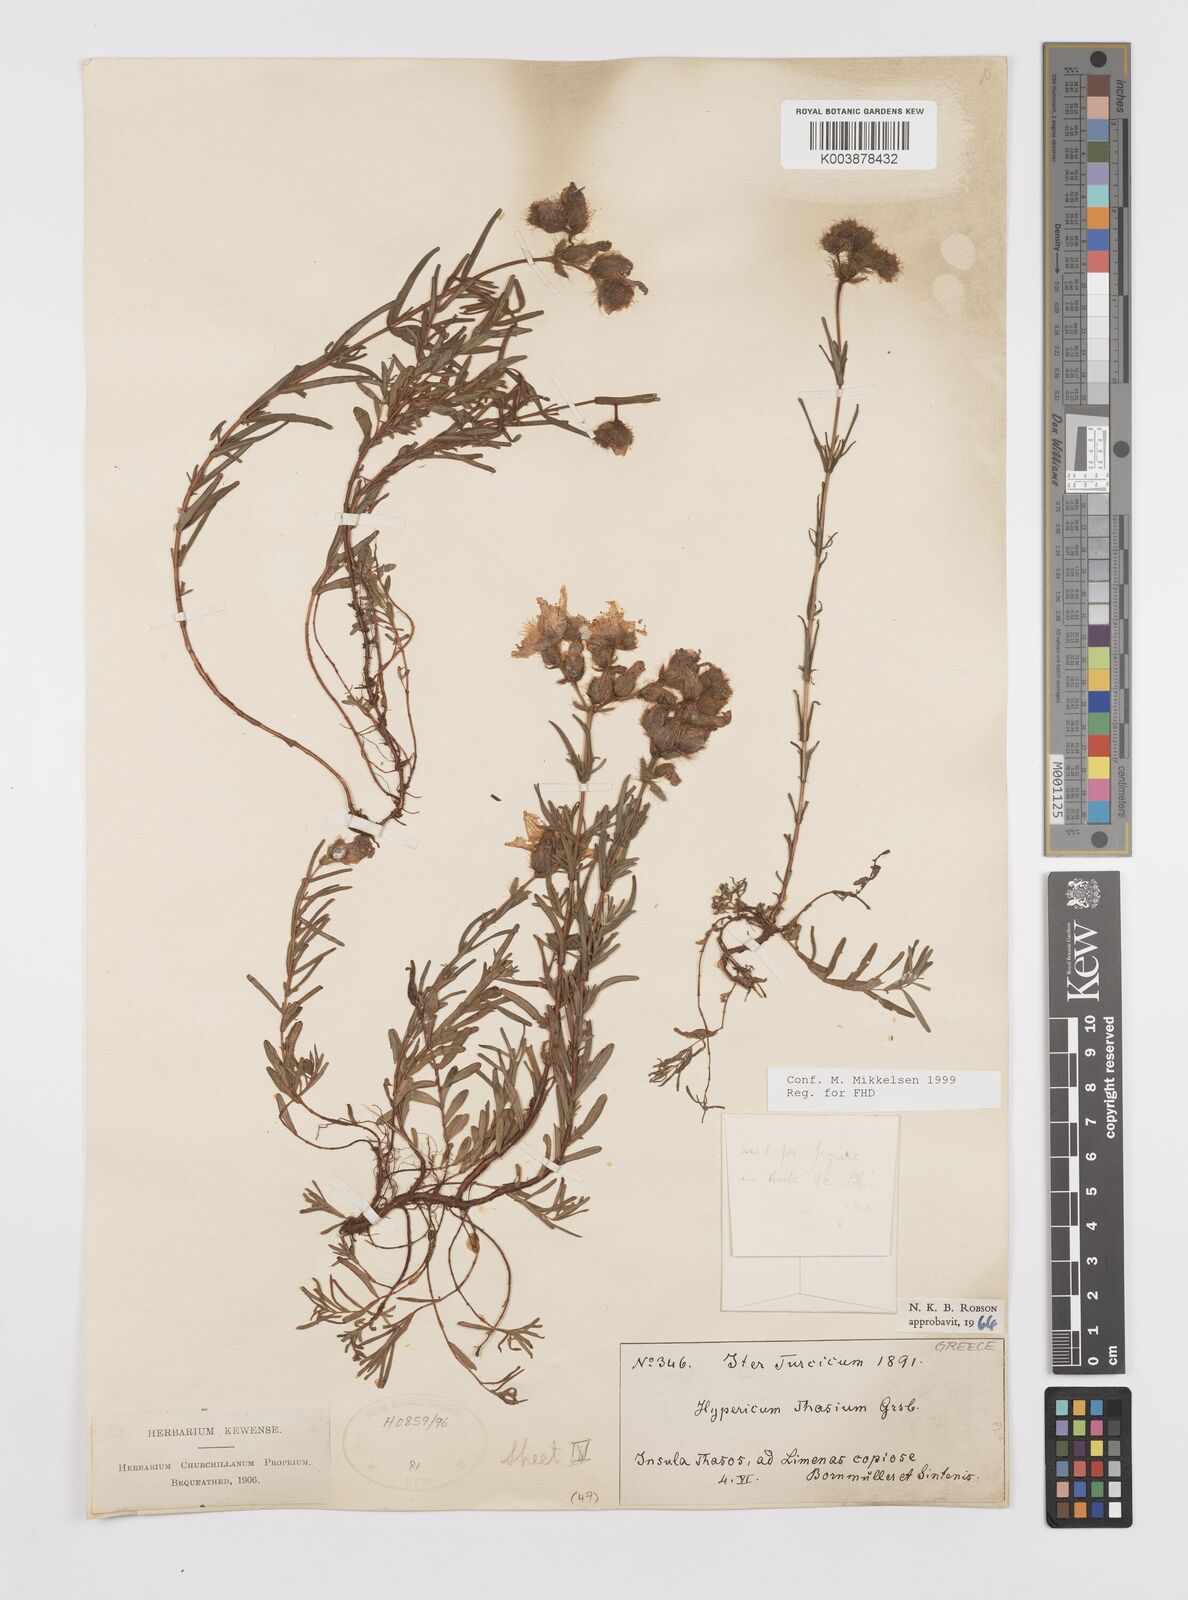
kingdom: Plantae
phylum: Tracheophyta
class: Magnoliopsida
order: Malpighiales
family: Hypericaceae
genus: Hypericum
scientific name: Hypericum thasium
